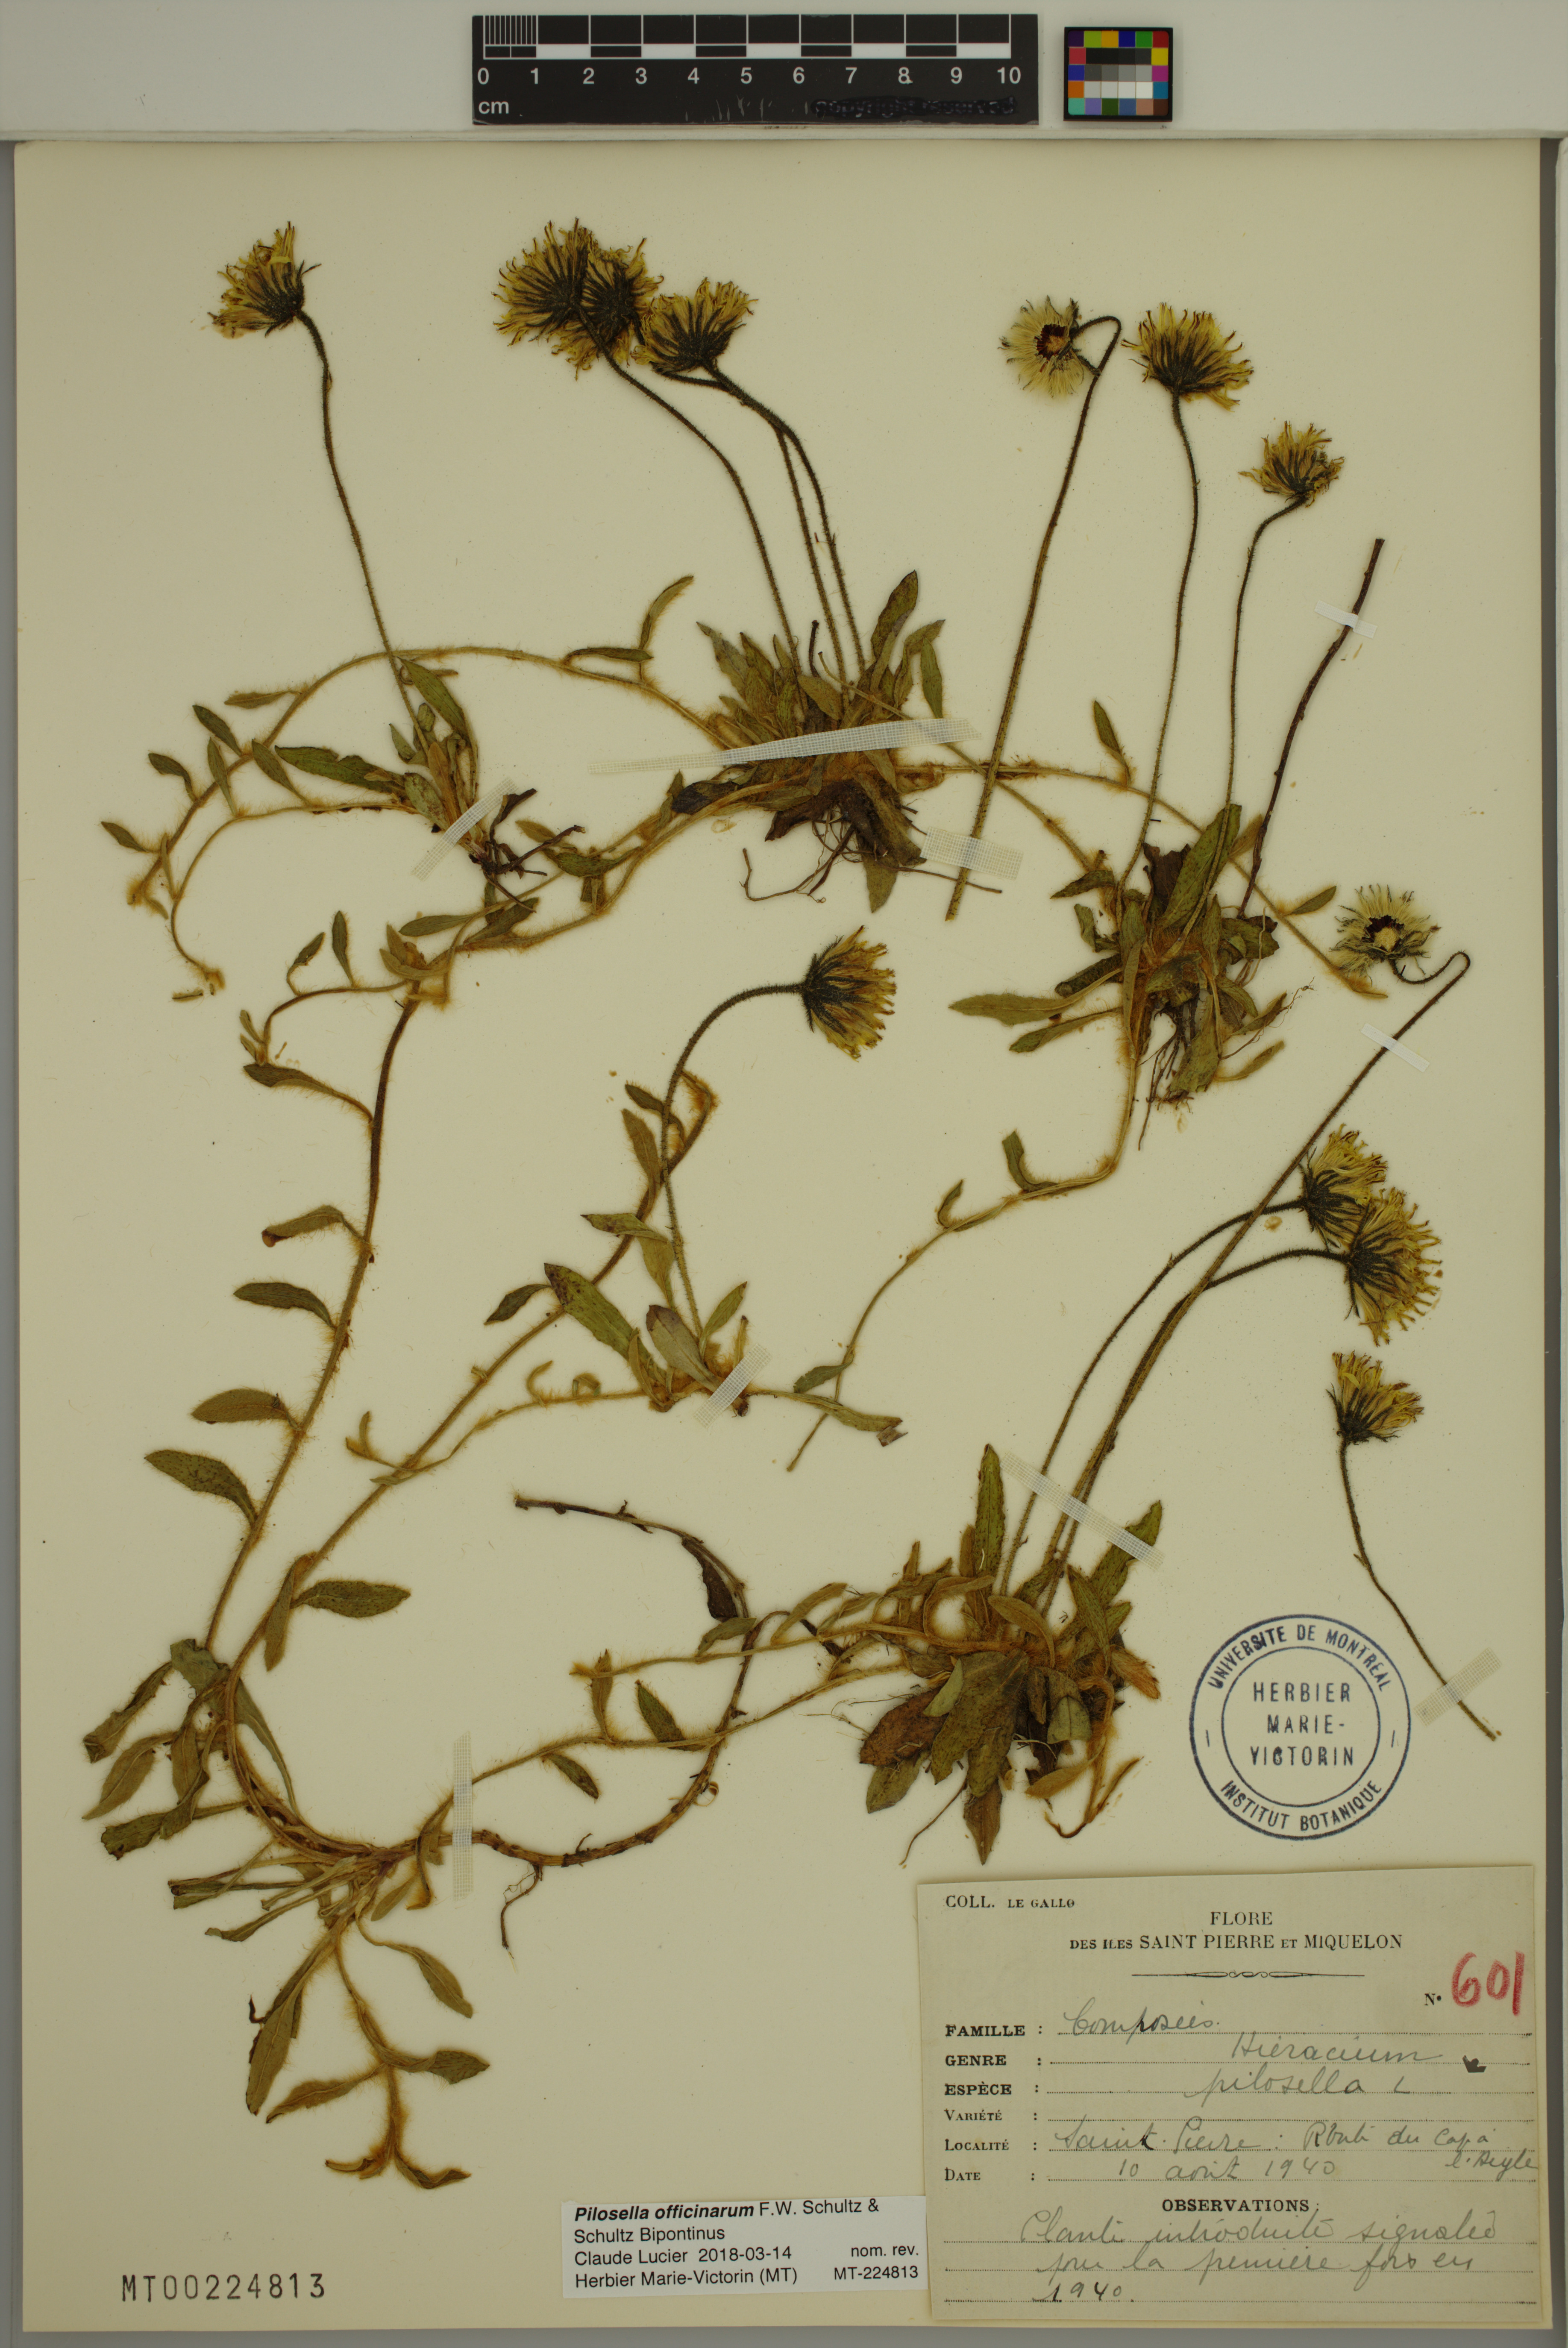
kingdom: Plantae
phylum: Tracheophyta
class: Magnoliopsida
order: Asterales
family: Asteraceae
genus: Pilosella
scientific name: Pilosella officinarum
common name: Mouse-ear hawkweed
